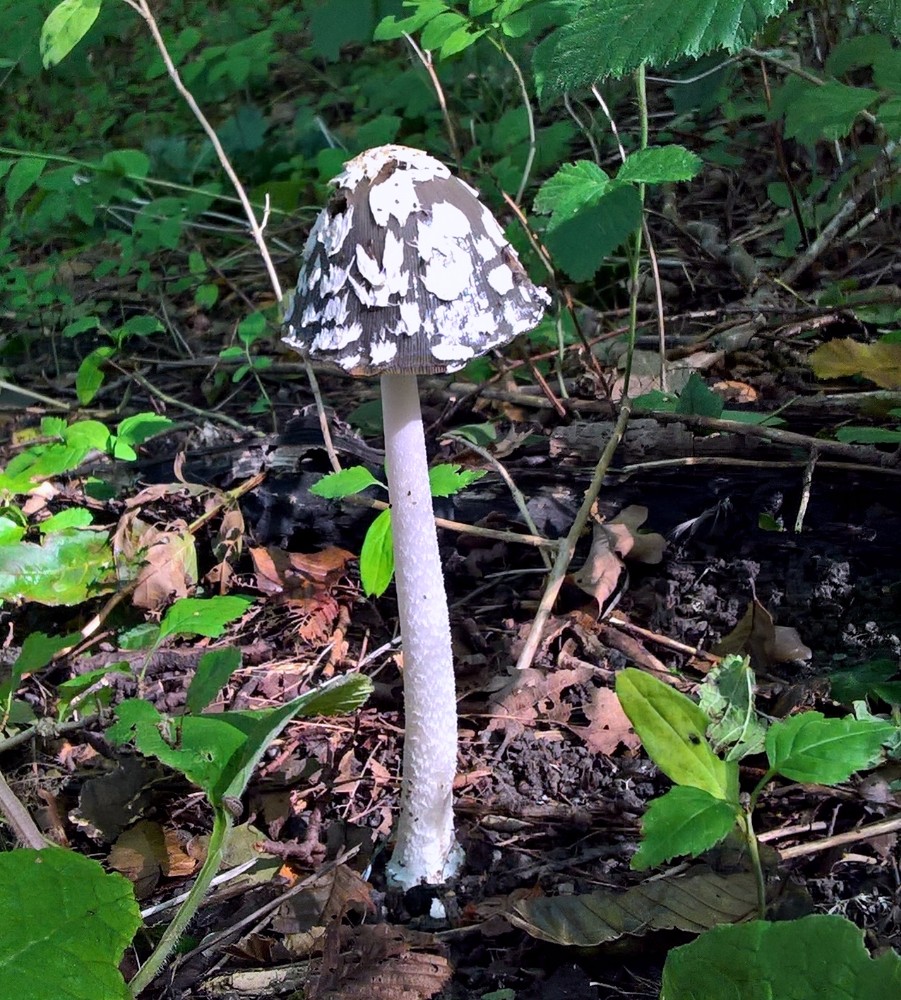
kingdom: Fungi
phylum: Basidiomycota
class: Agaricomycetes
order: Agaricales
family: Psathyrellaceae
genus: Coprinopsis
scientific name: Coprinopsis picacea
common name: skade-blækhat
